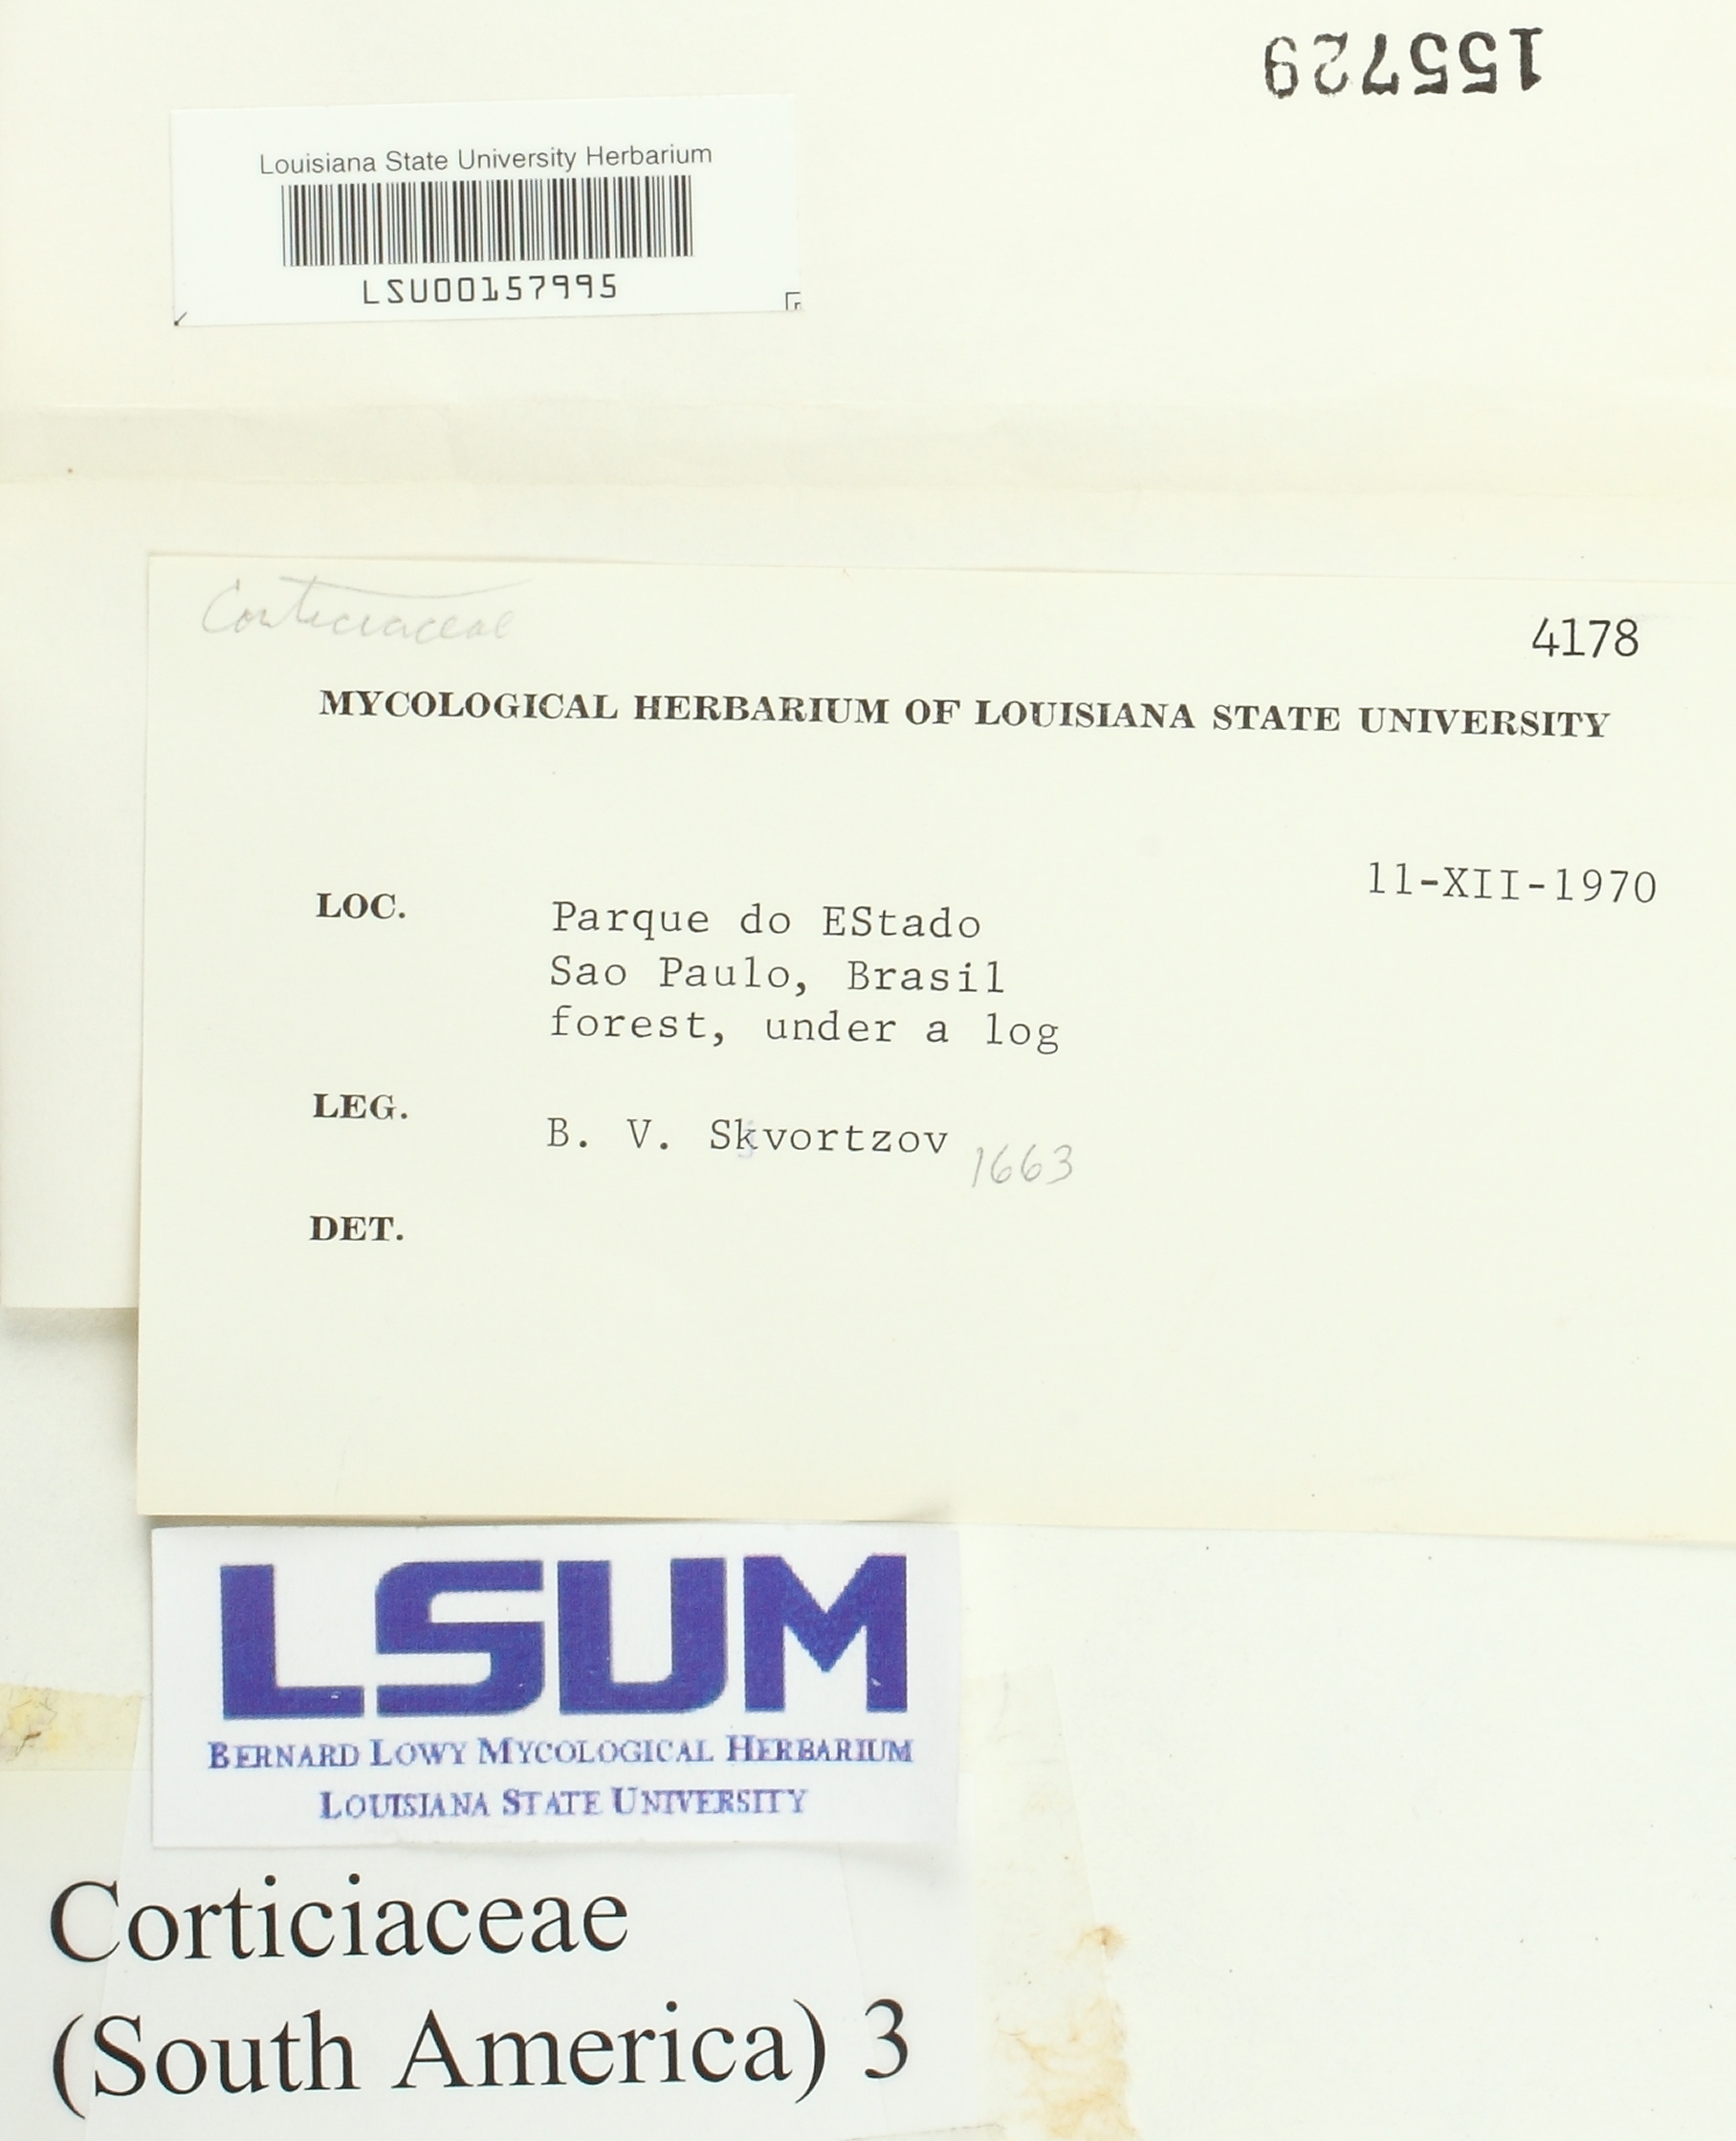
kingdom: Fungi
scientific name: Fungi
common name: Fungi
